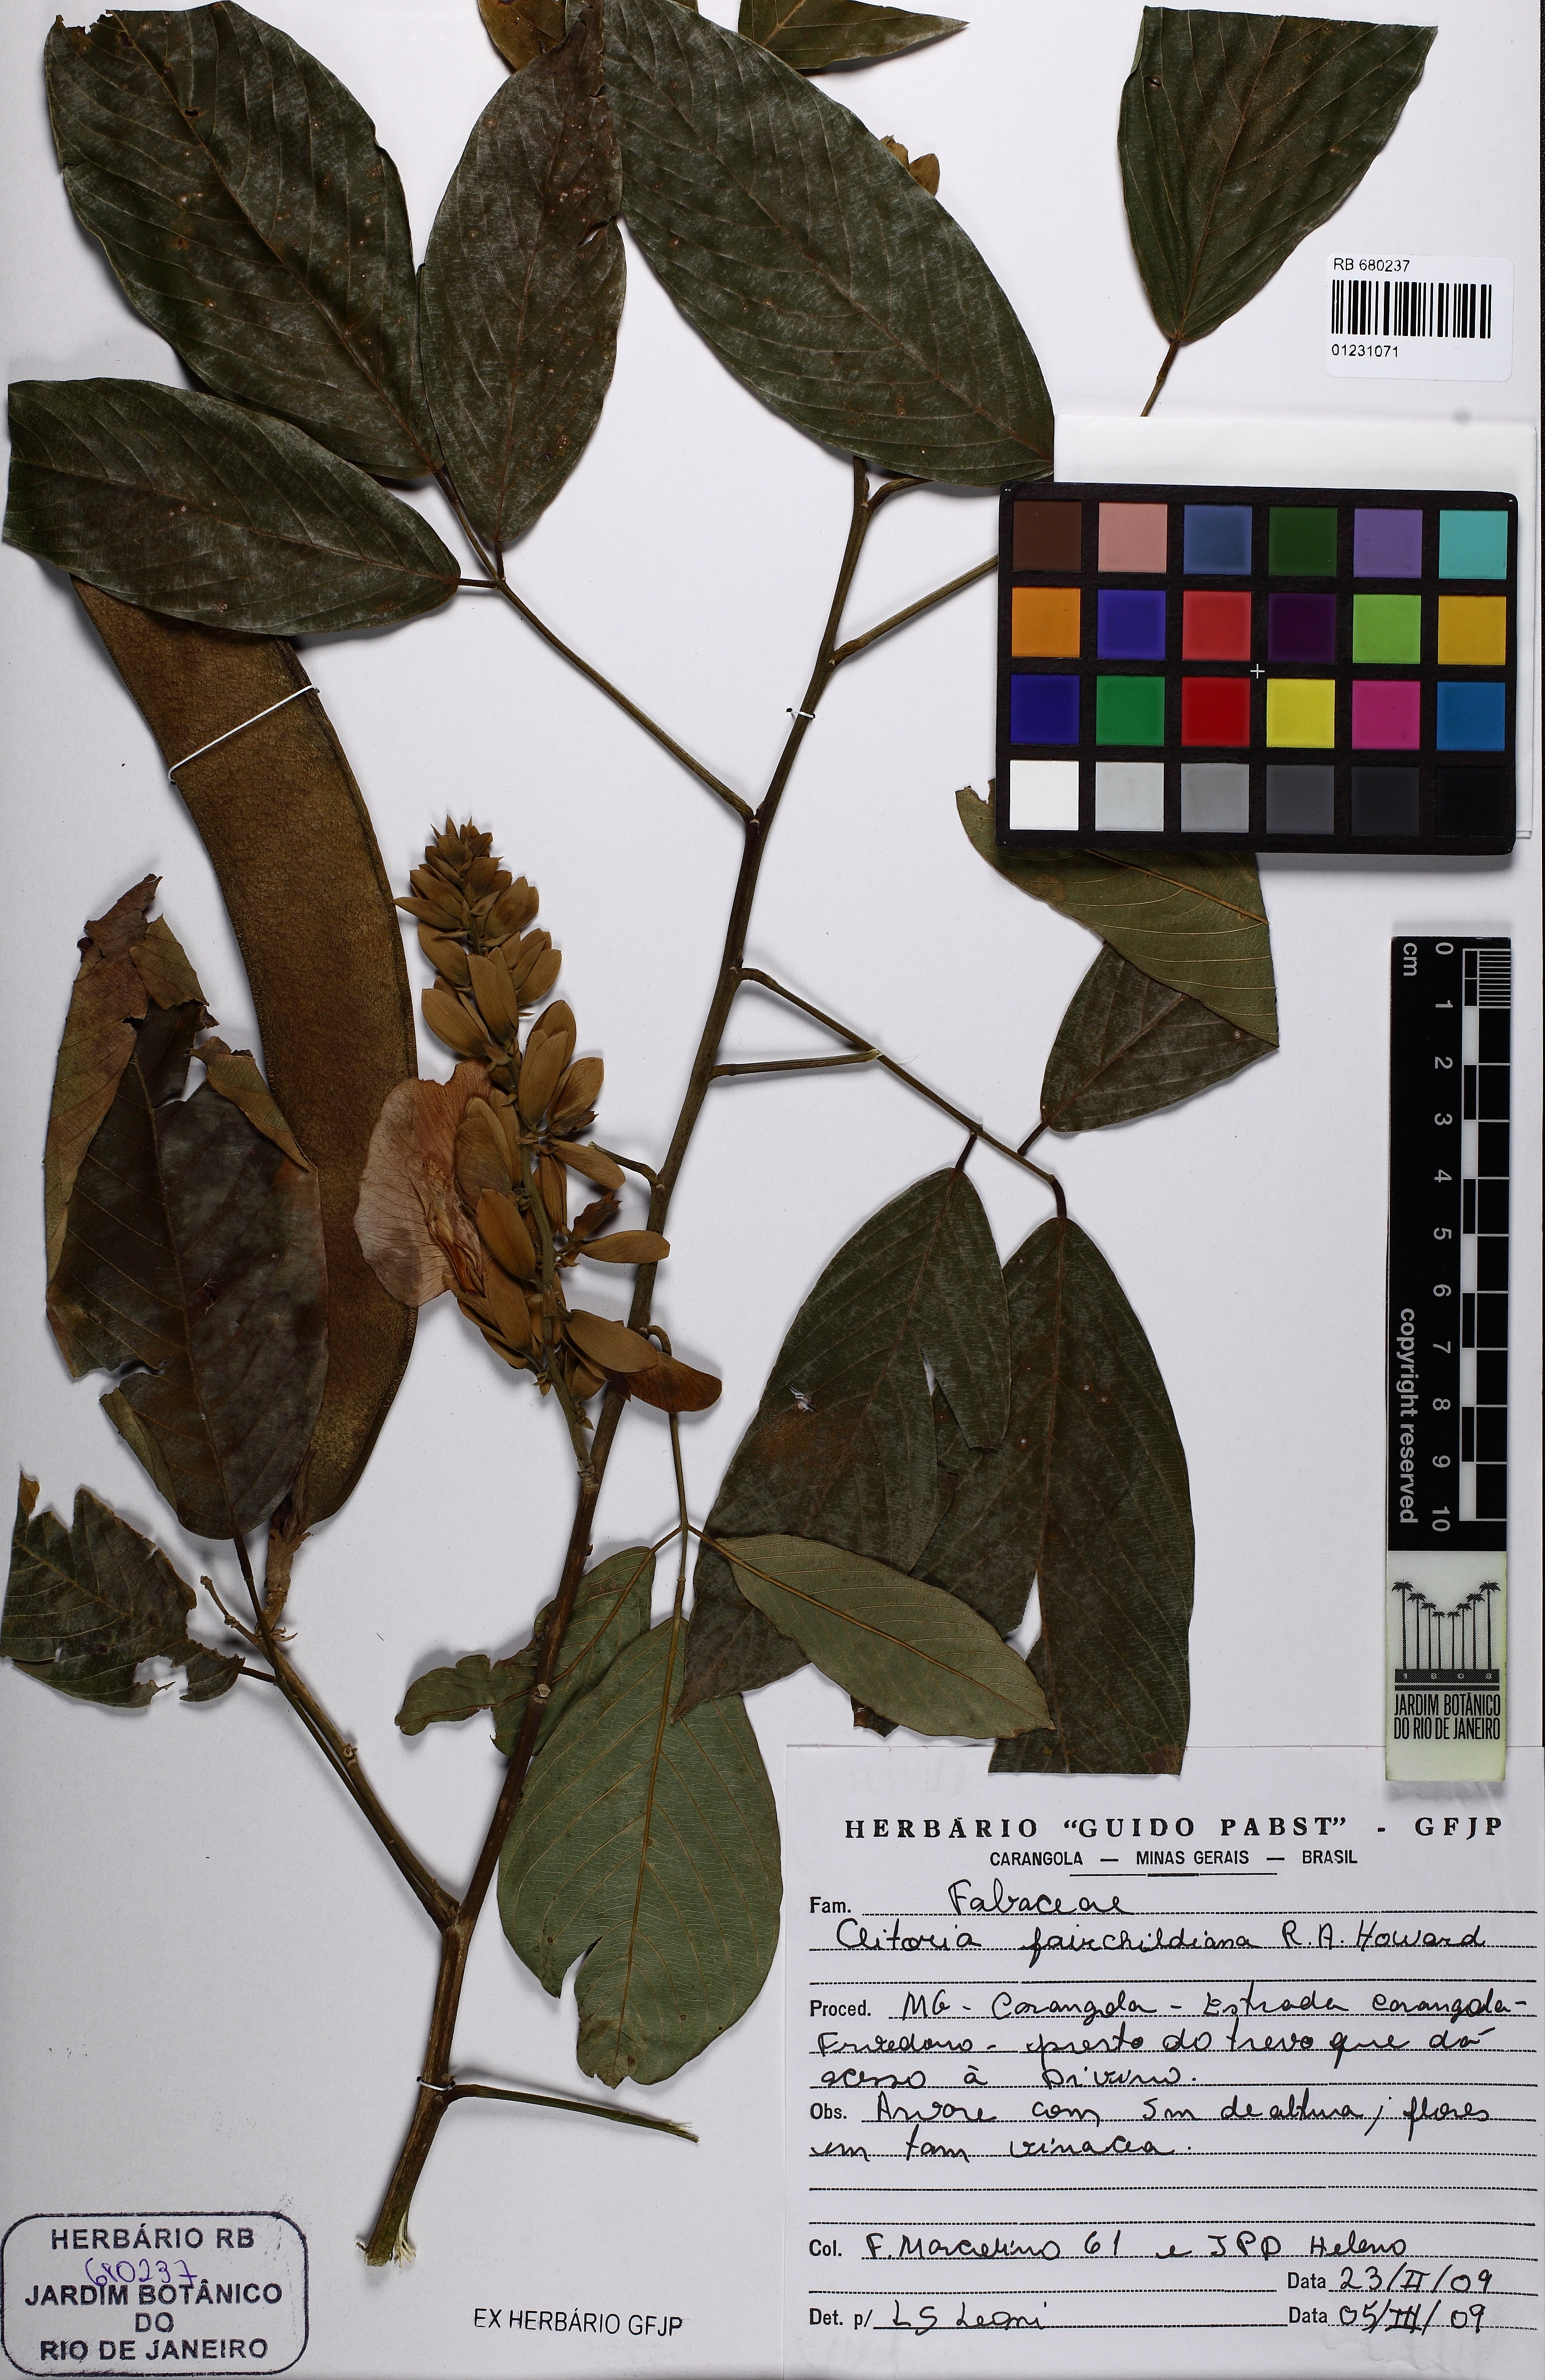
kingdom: Plantae
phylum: Tracheophyta
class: Magnoliopsida
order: Fabales
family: Fabaceae
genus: Clitoria
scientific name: Clitoria fairchildiana
